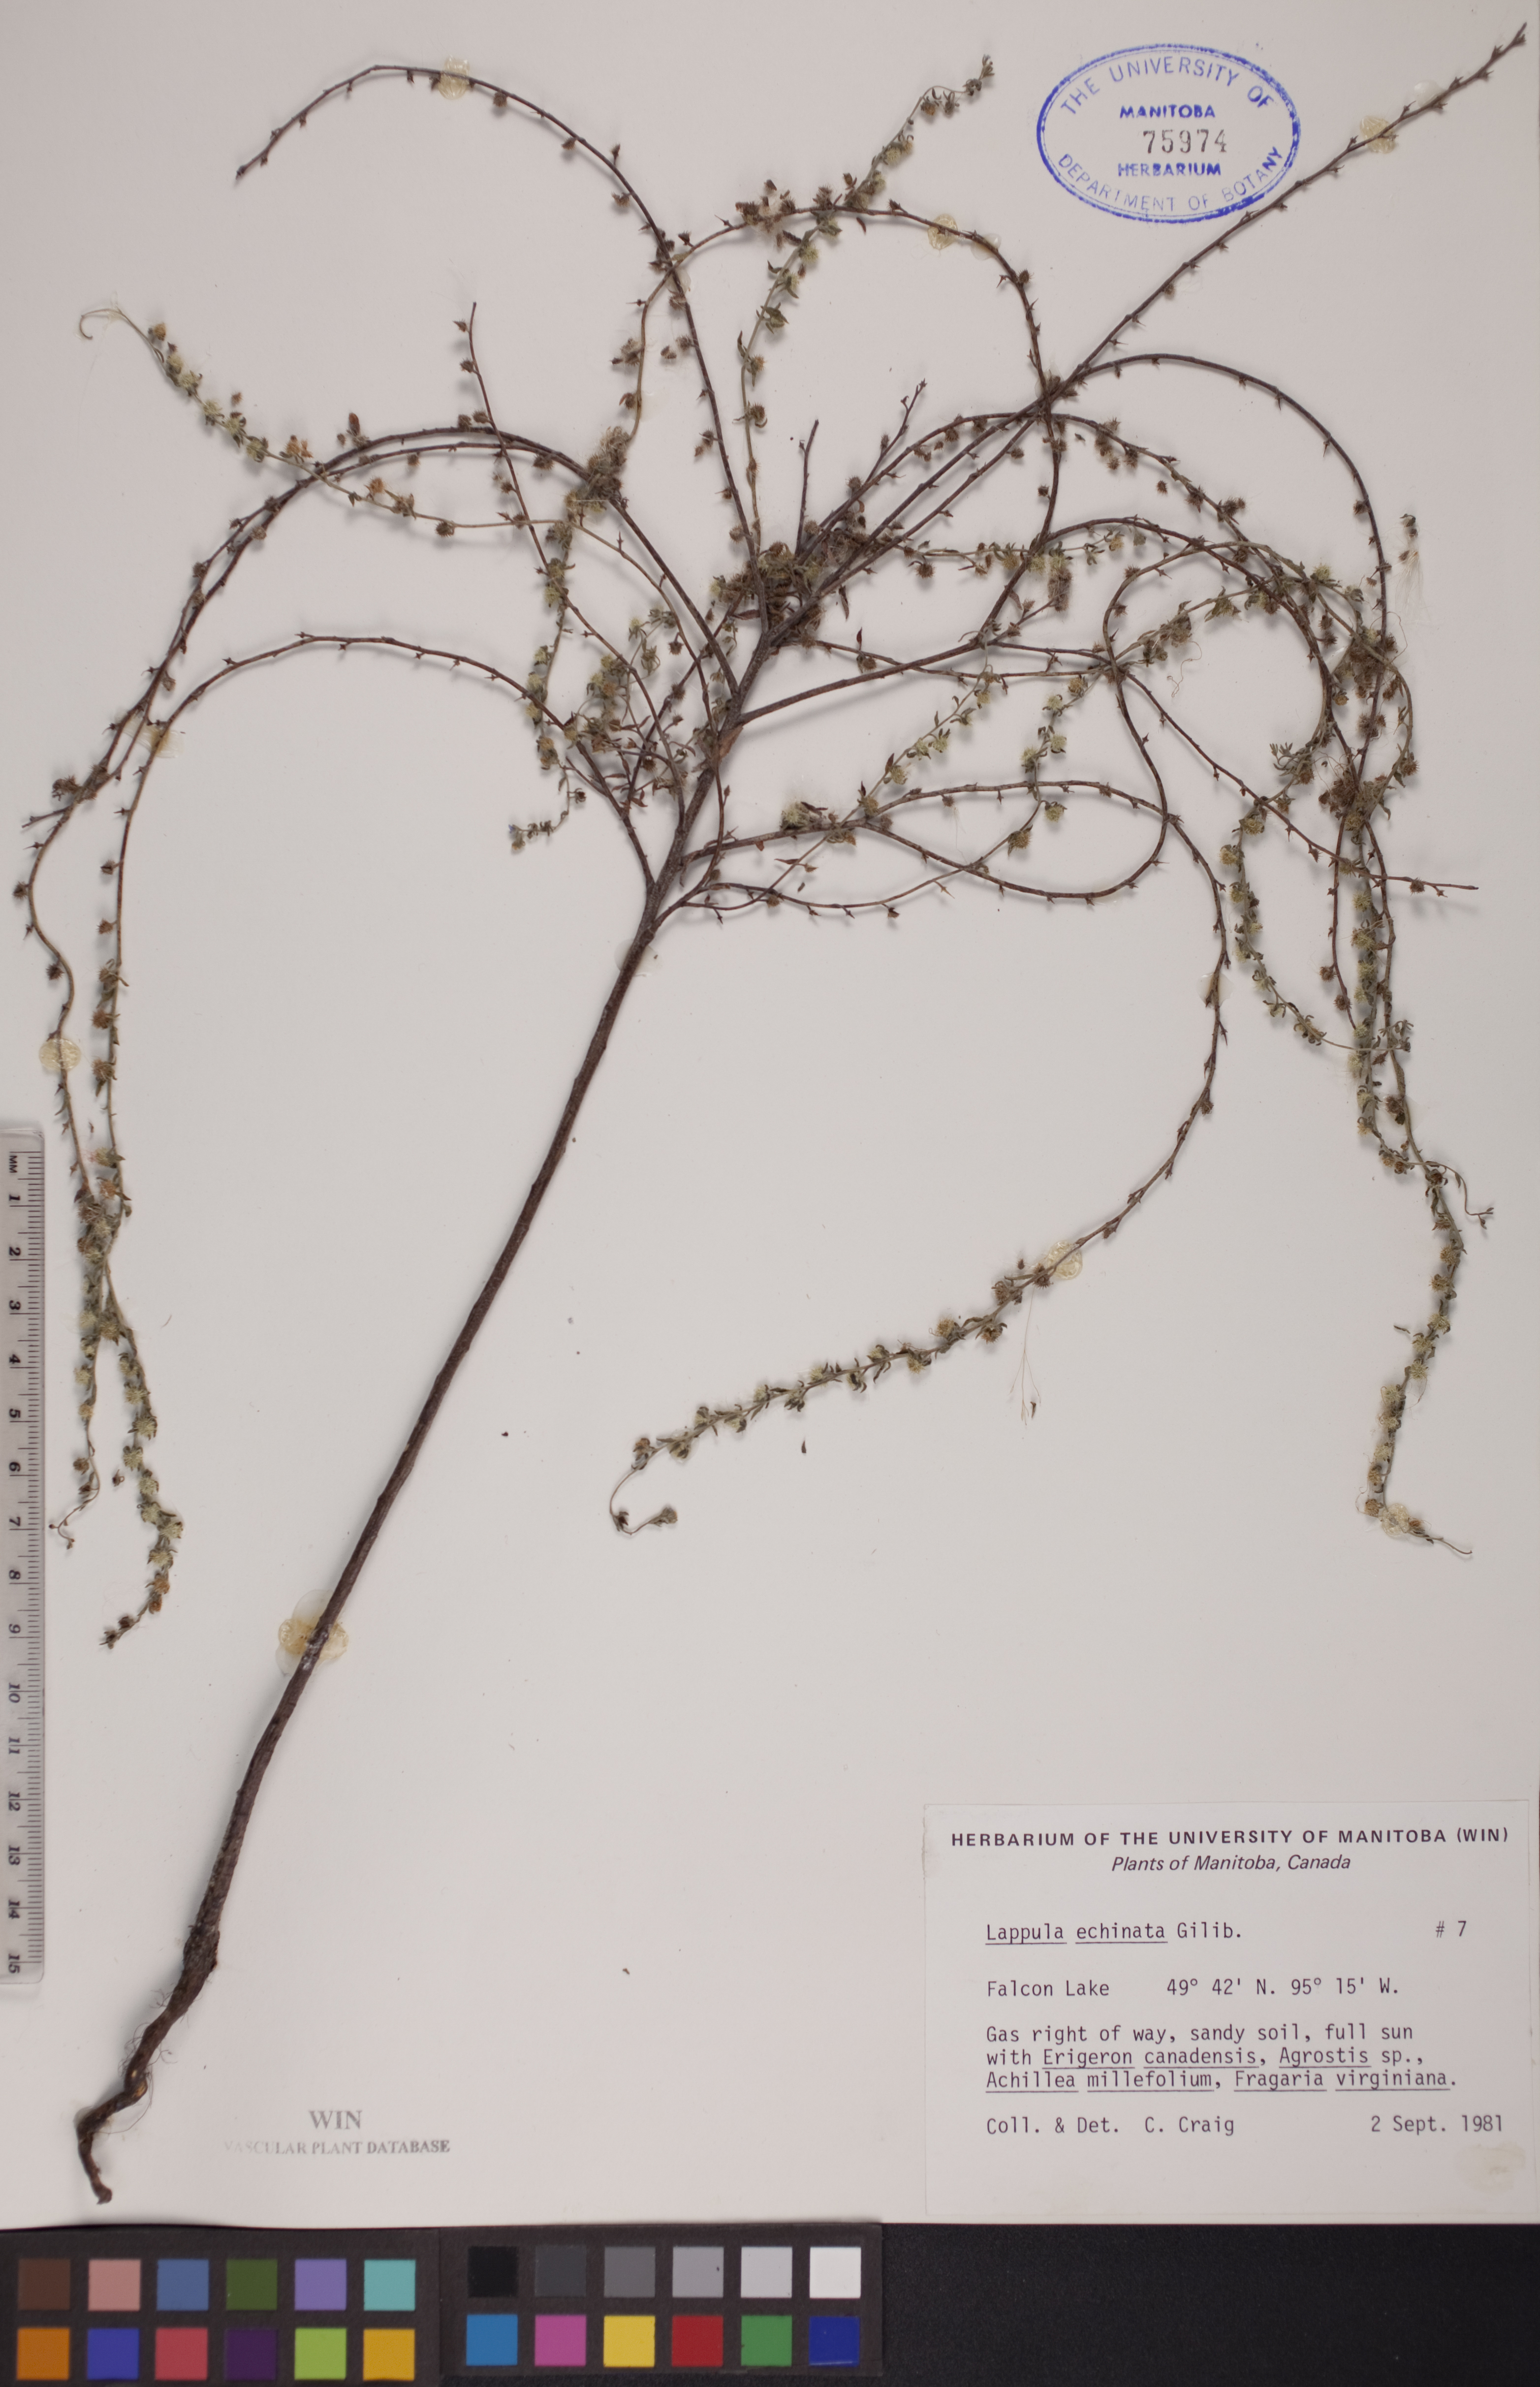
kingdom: Plantae
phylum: Tracheophyta
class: Magnoliopsida
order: Boraginales
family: Boraginaceae
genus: Lappula
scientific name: Lappula squarrosa
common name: European stickseed
